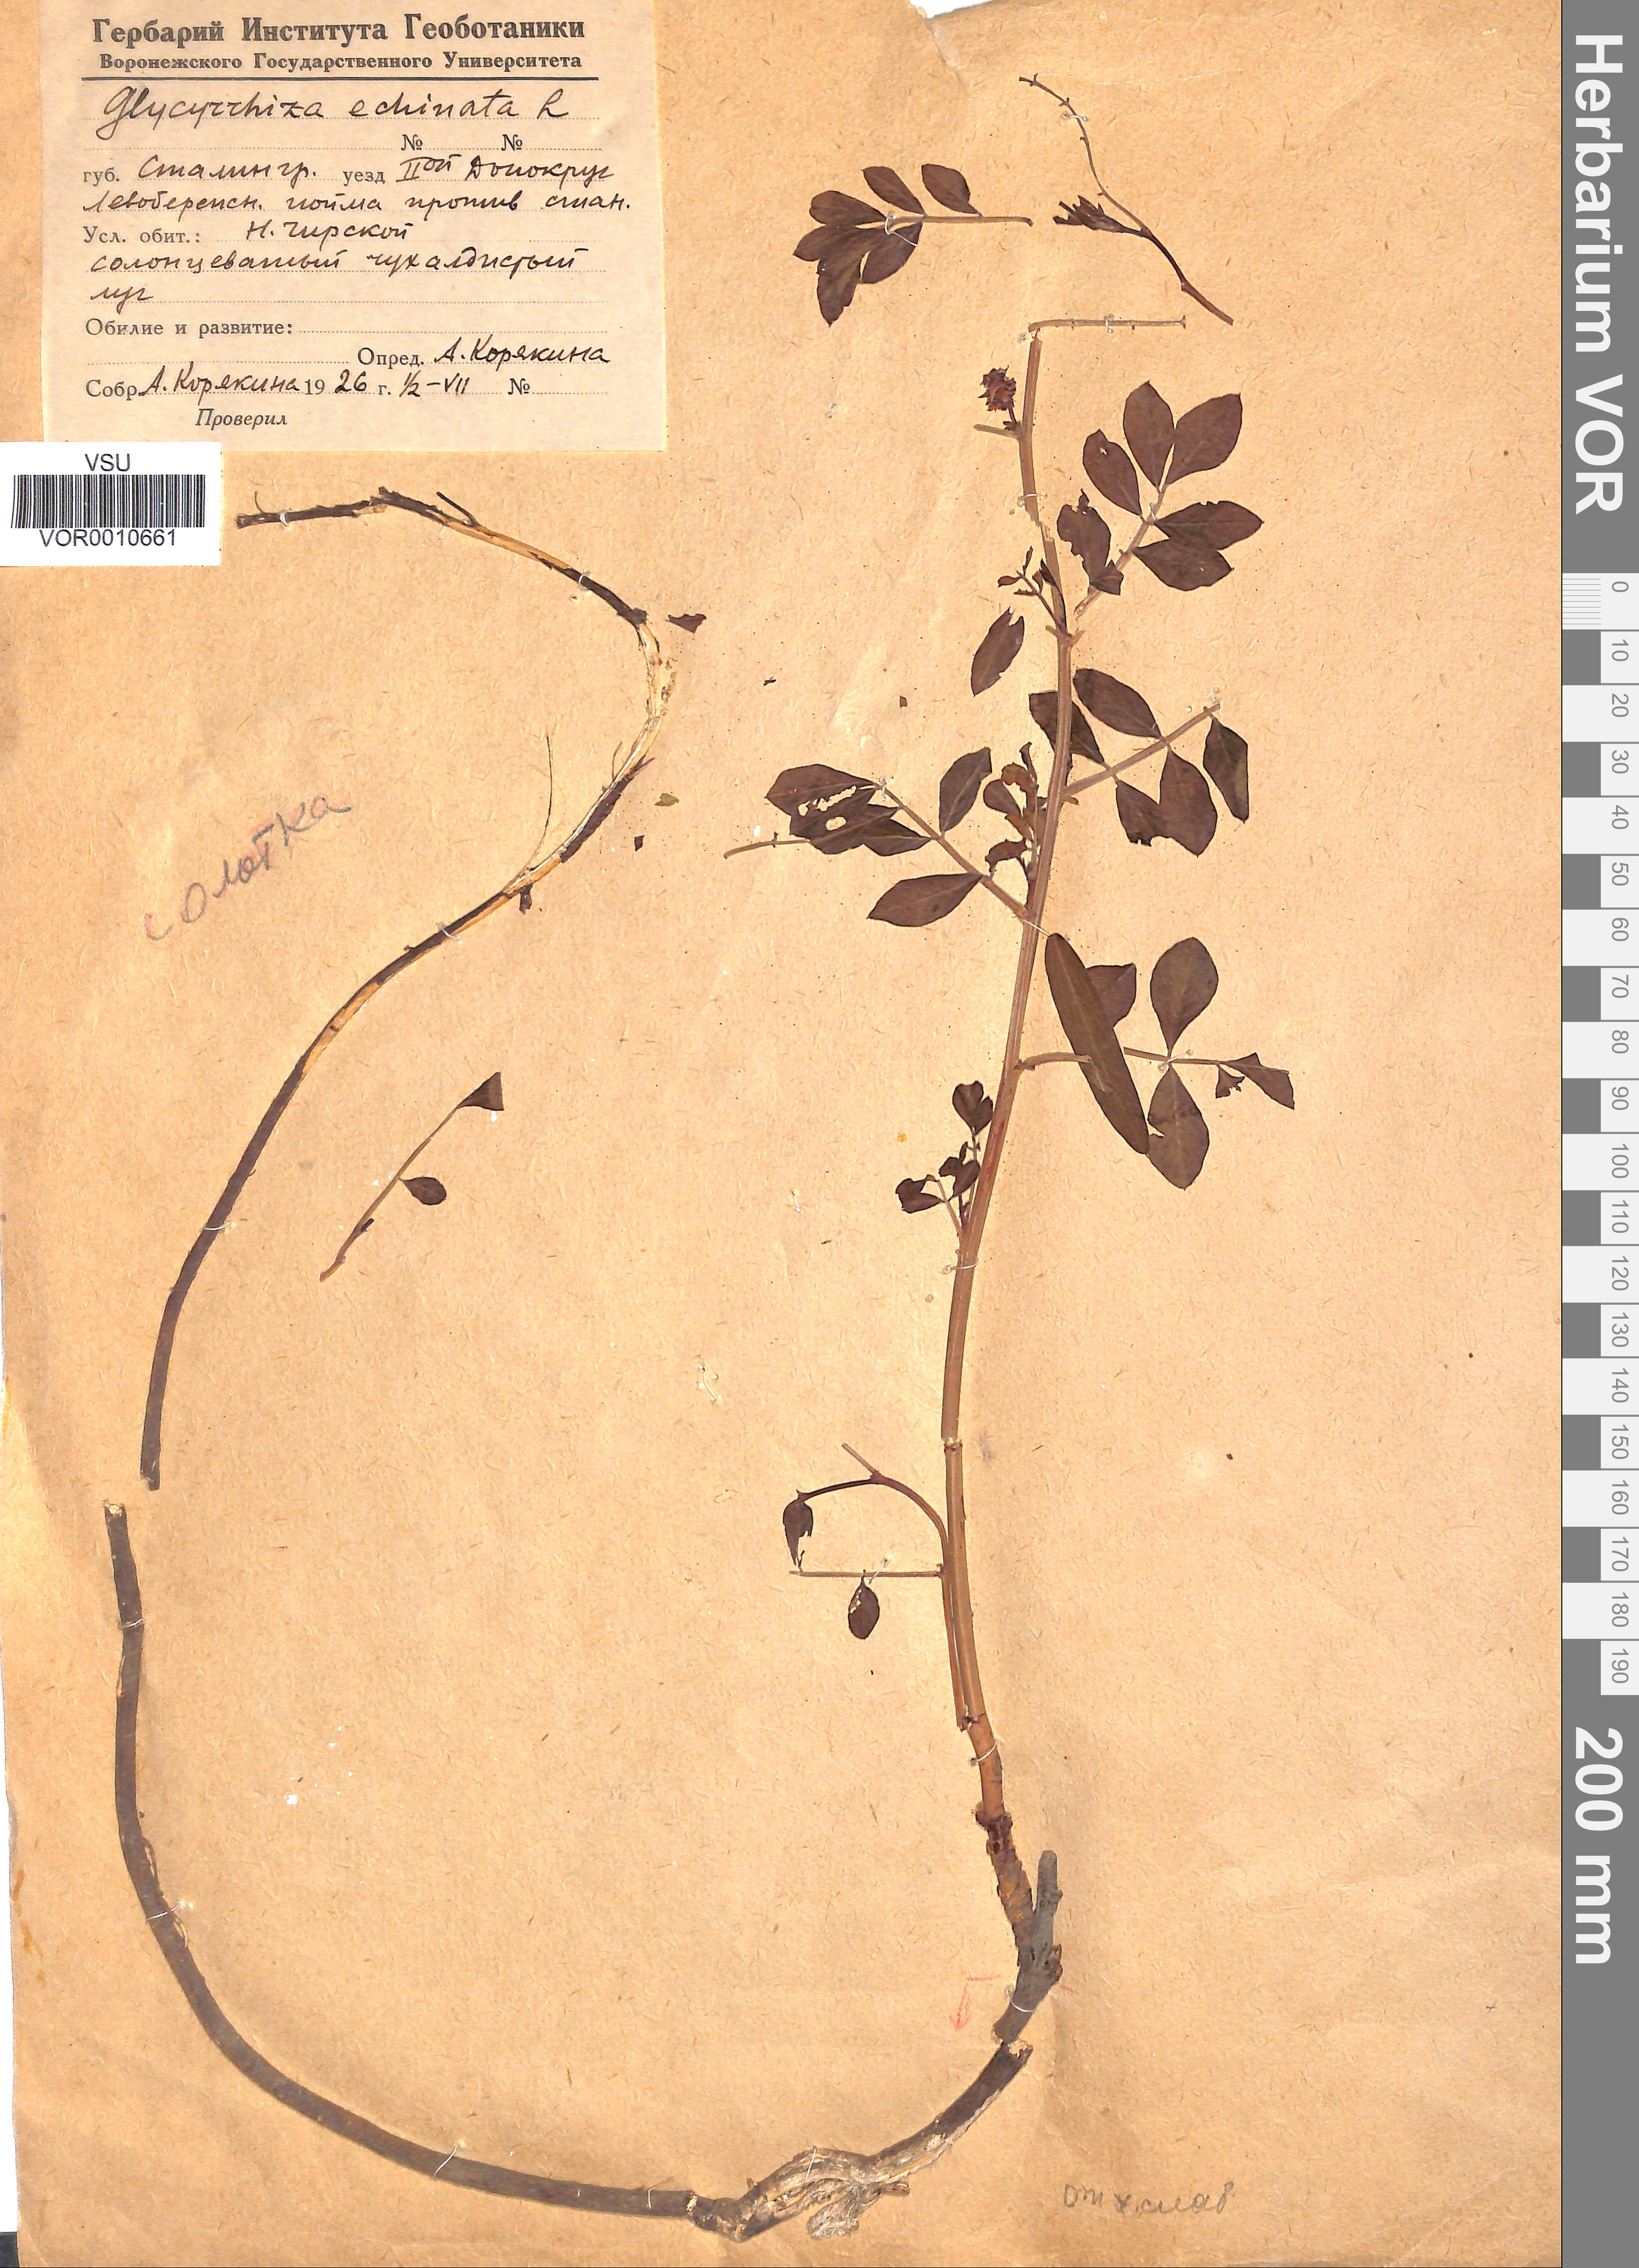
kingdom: Plantae
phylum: Tracheophyta
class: Magnoliopsida
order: Fabales
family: Fabaceae
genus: Glycyrrhiza
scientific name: Glycyrrhiza echinata
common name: German liquorice
